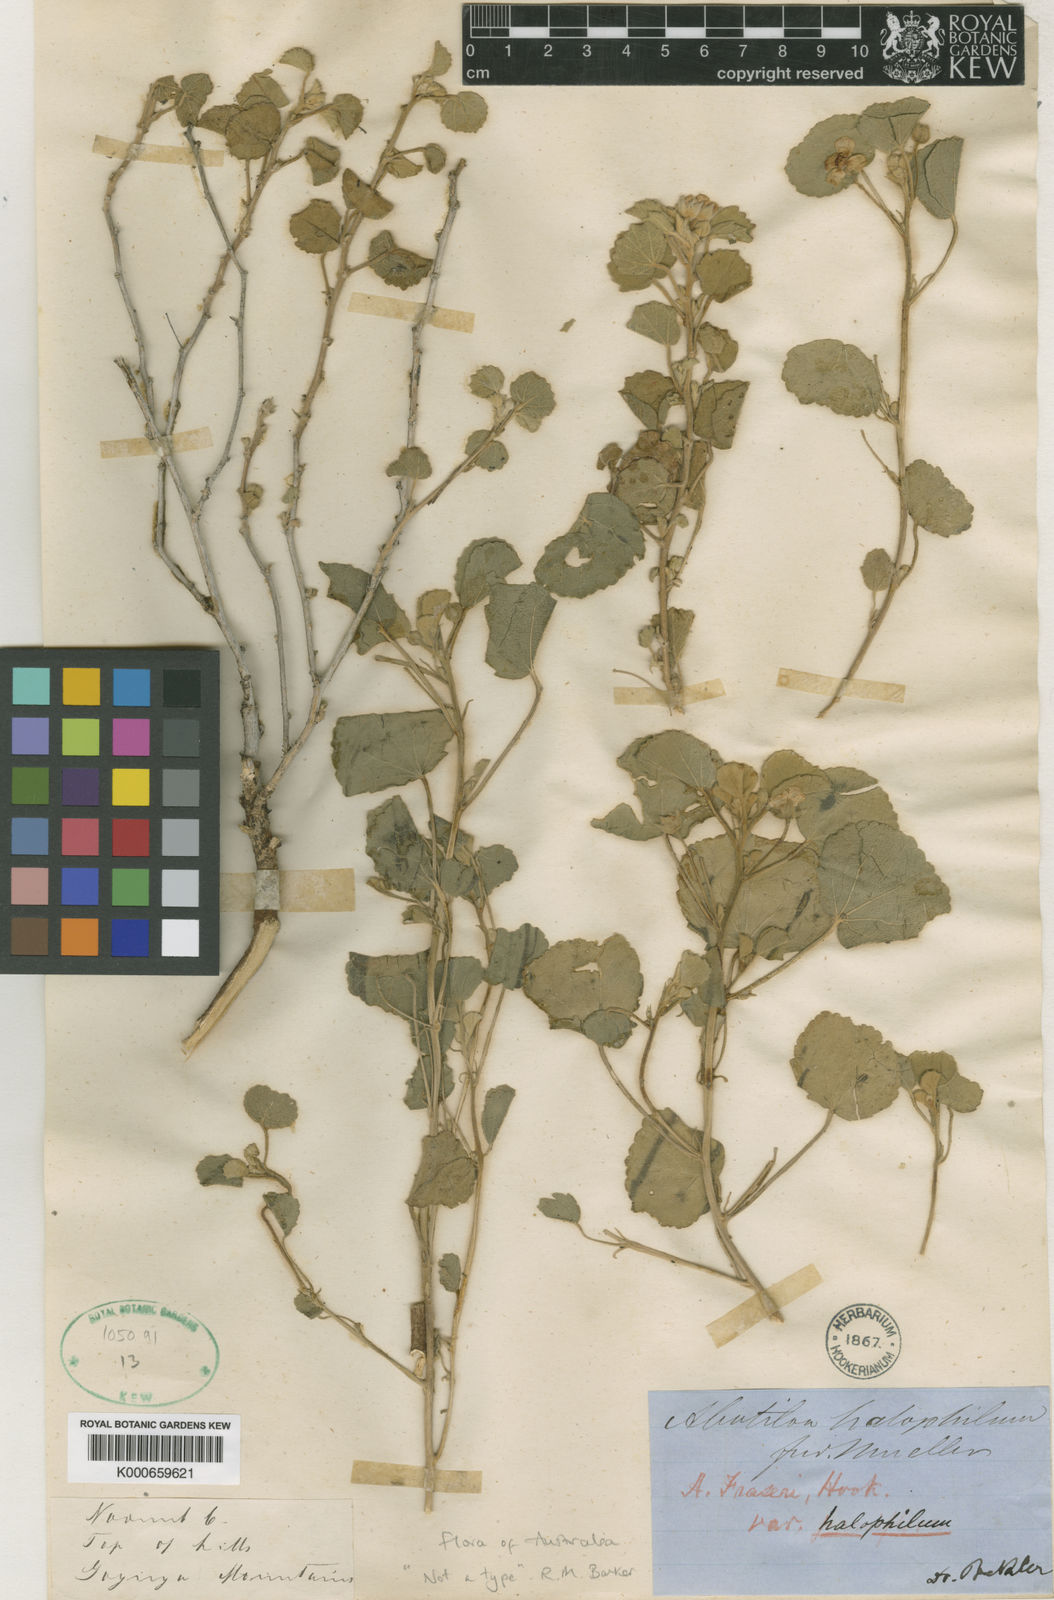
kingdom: Plantae
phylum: Tracheophyta
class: Magnoliopsida
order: Malvales
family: Malvaceae
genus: Abutilon
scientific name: Abutilon halophilum
